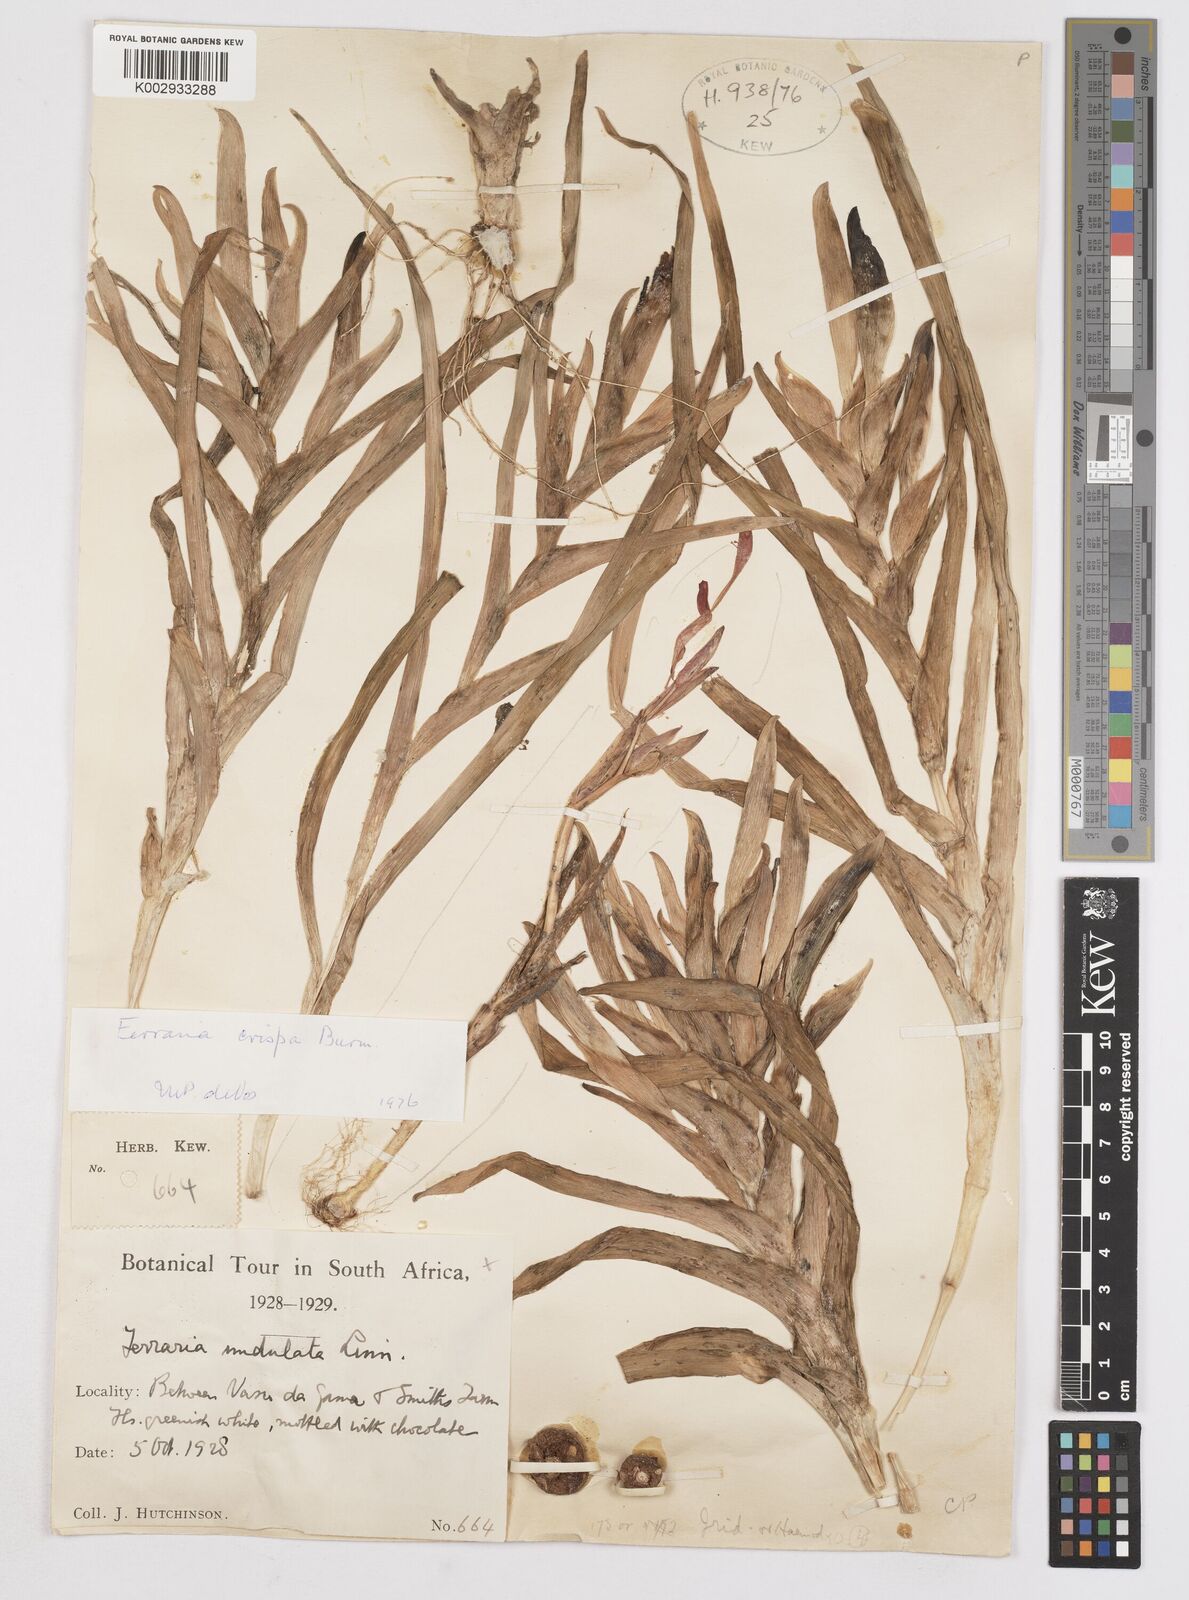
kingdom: Plantae
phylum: Tracheophyta
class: Liliopsida
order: Asparagales
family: Iridaceae
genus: Ferraria
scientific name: Ferraria crispa
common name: Black-flag
